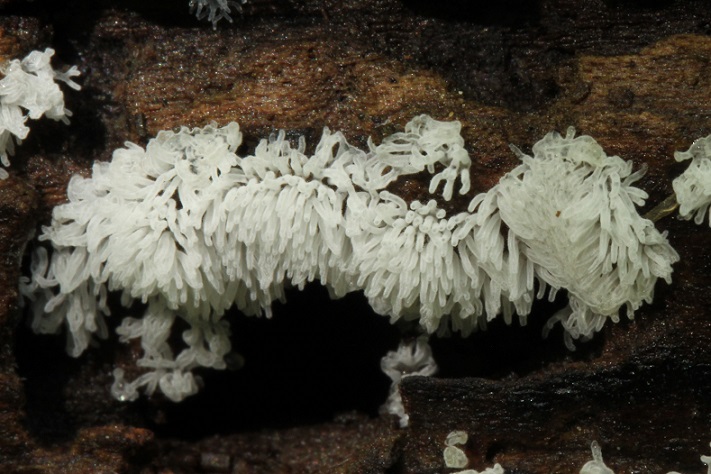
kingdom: Protozoa
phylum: Mycetozoa
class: Protosteliomycetes
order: Ceratiomyxales
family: Ceratiomyxaceae
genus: Ceratiomyxa
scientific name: Ceratiomyxa fruticulosa
